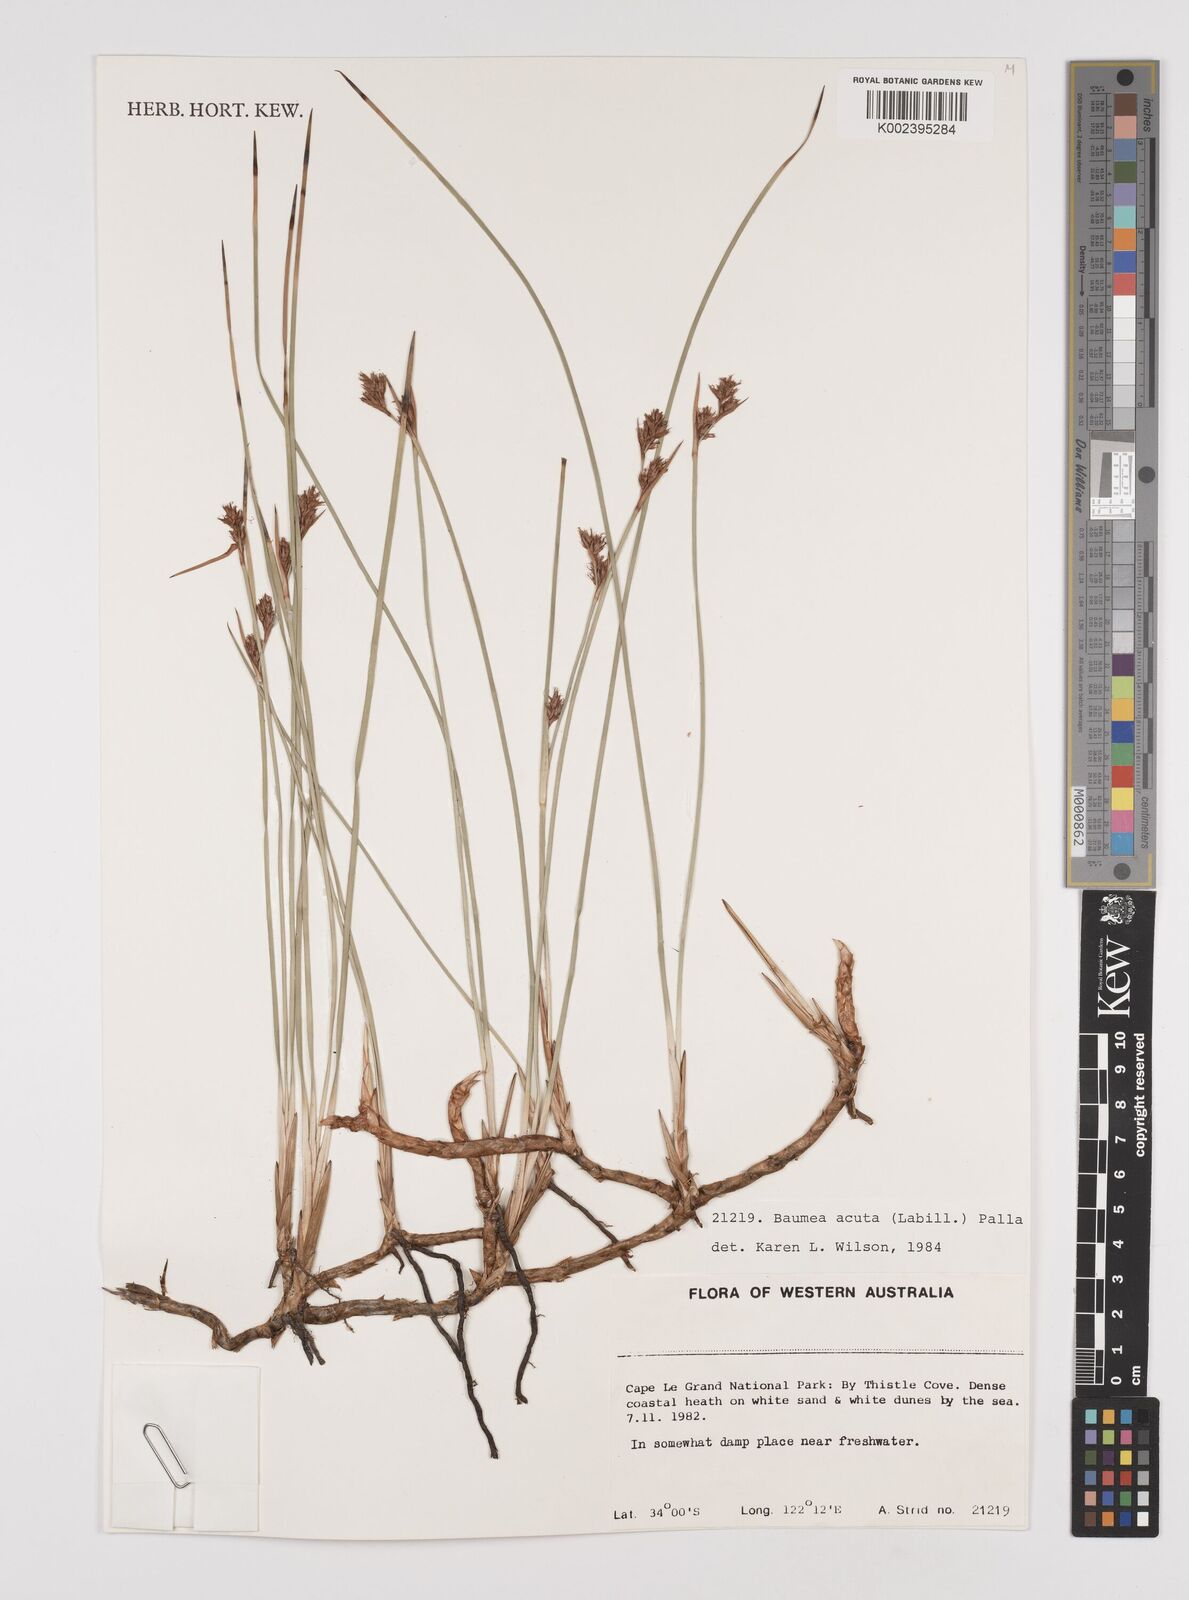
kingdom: Plantae
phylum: Tracheophyta
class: Liliopsida
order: Poales
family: Cyperaceae
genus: Machaerina
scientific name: Machaerina acuta
